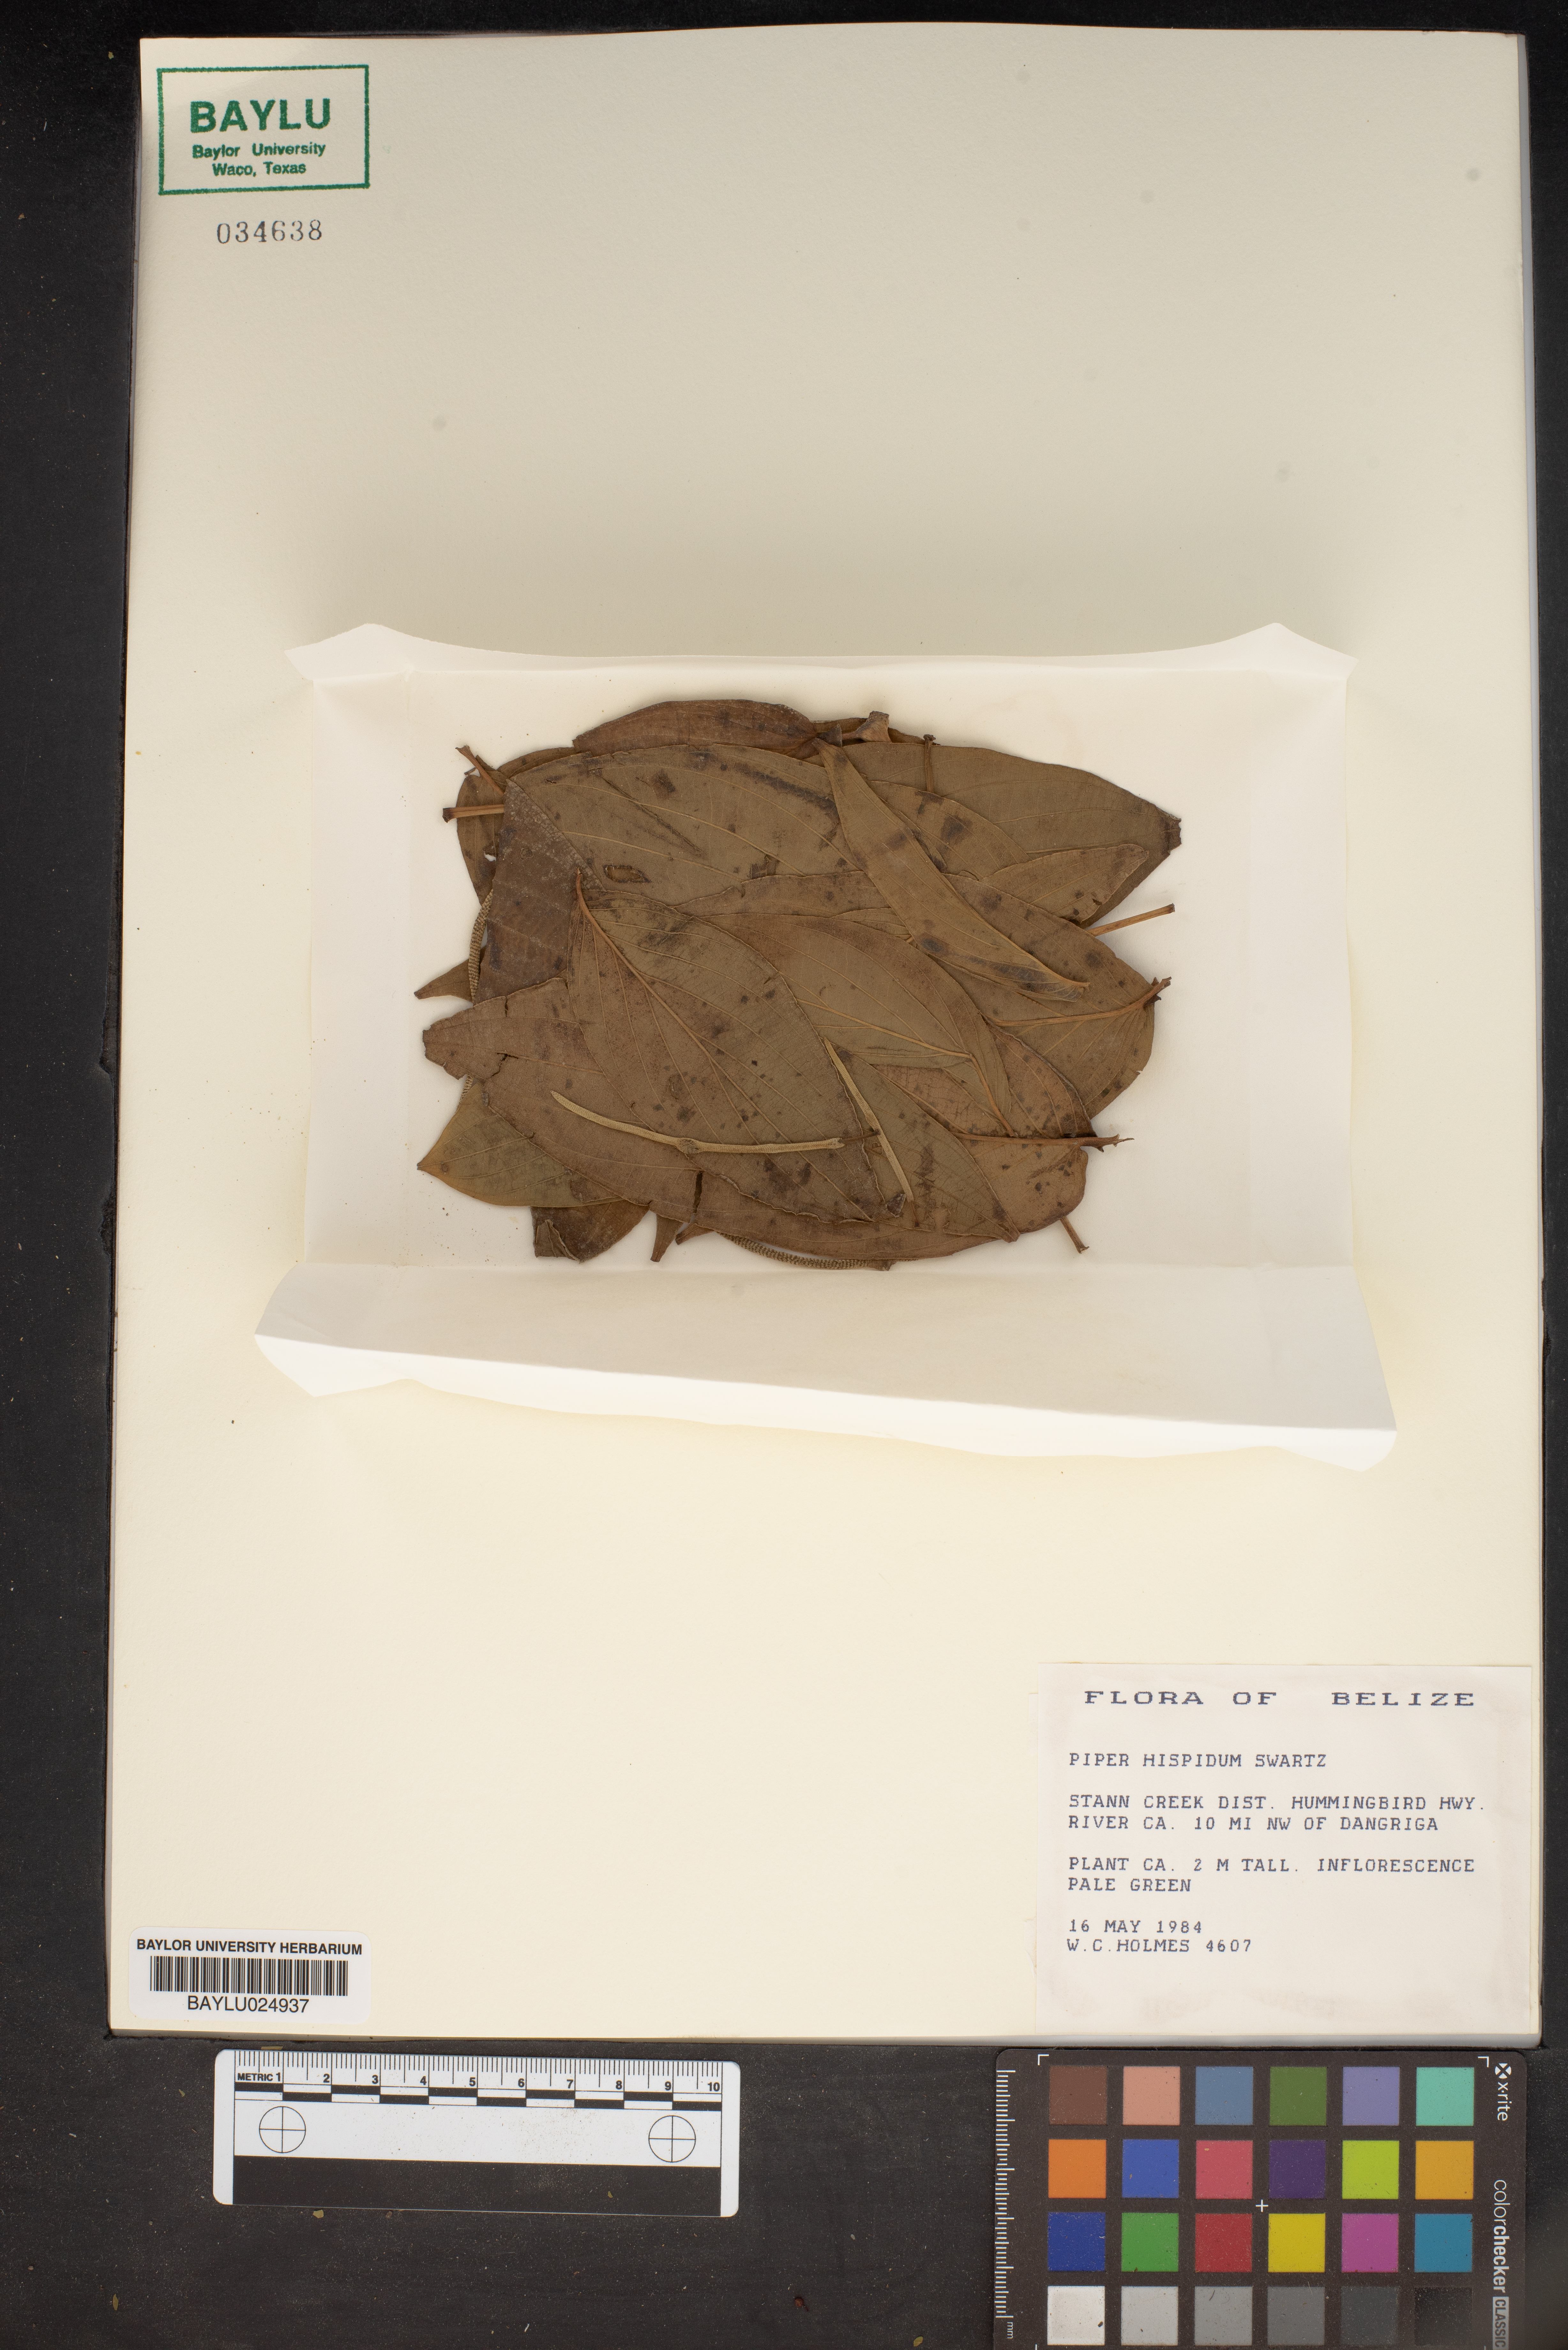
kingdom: Plantae
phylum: Tracheophyta
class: Magnoliopsida
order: Piperales
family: Piperaceae
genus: Piper
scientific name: Piper hispidum
